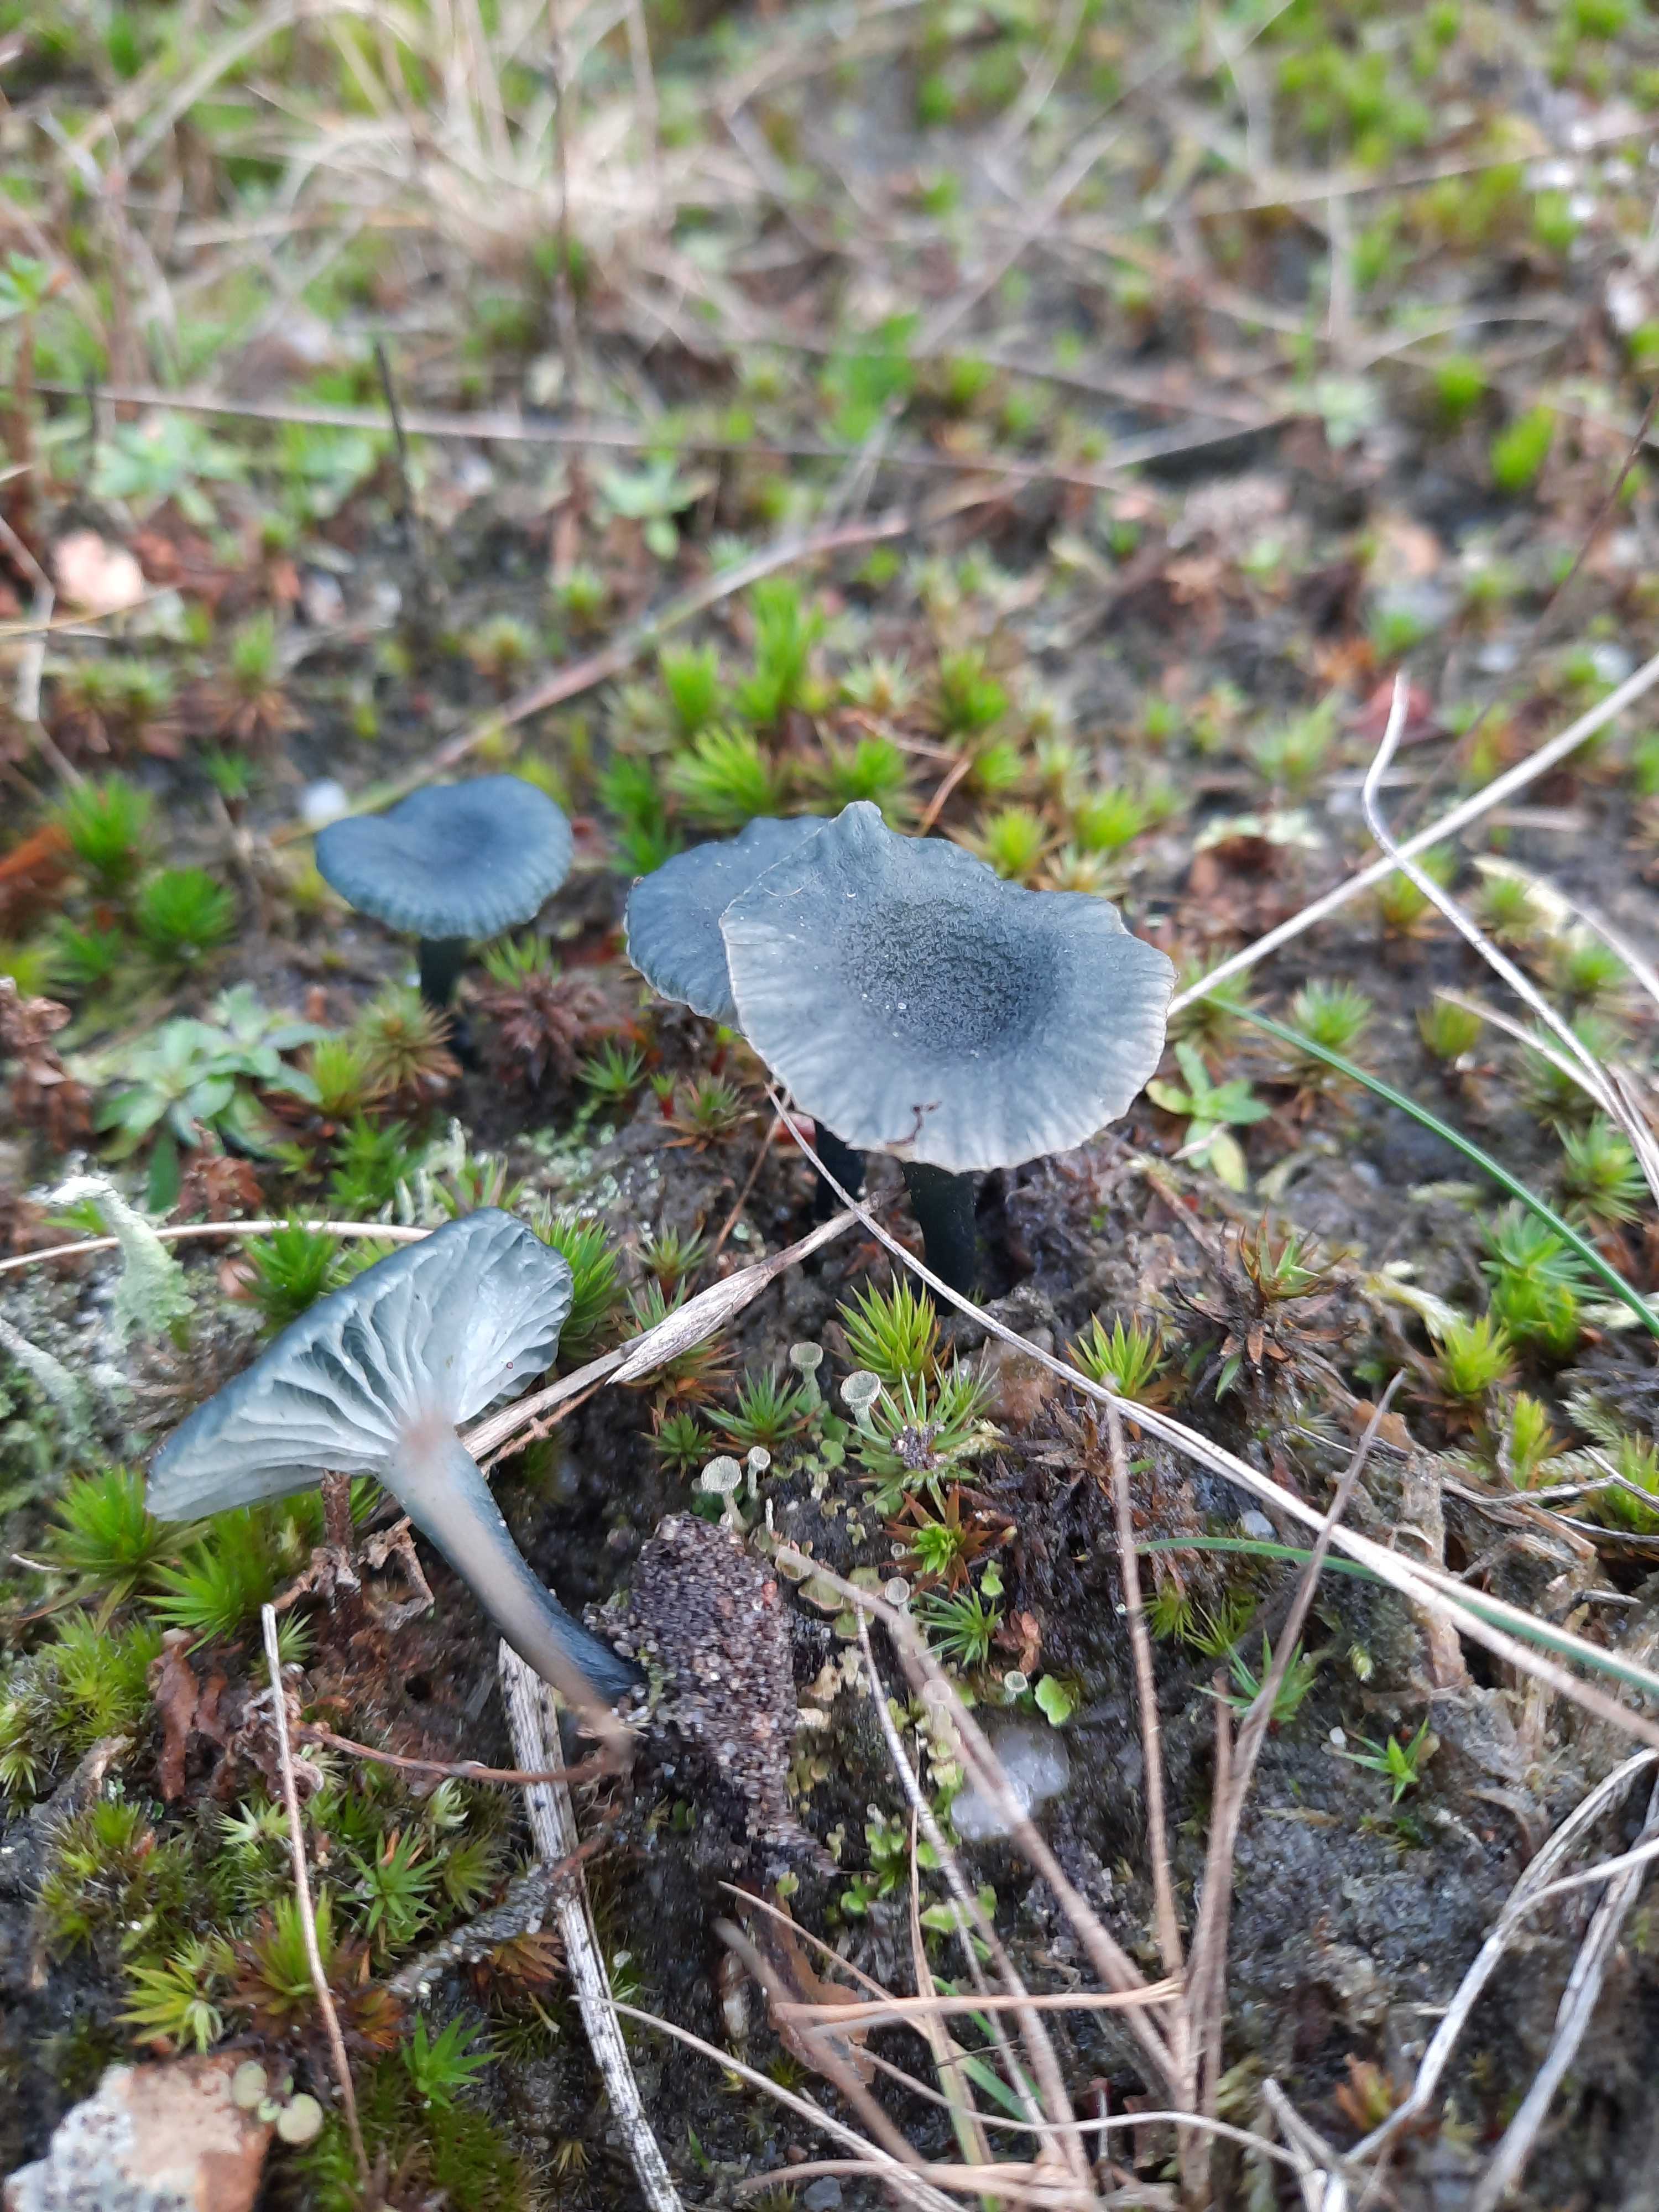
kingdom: Fungi
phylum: Basidiomycota
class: Agaricomycetes
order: Agaricales
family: Hygrophoraceae
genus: Arrhenia
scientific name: Arrhenia chlorocyanea
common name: blågrøn fontænehat
